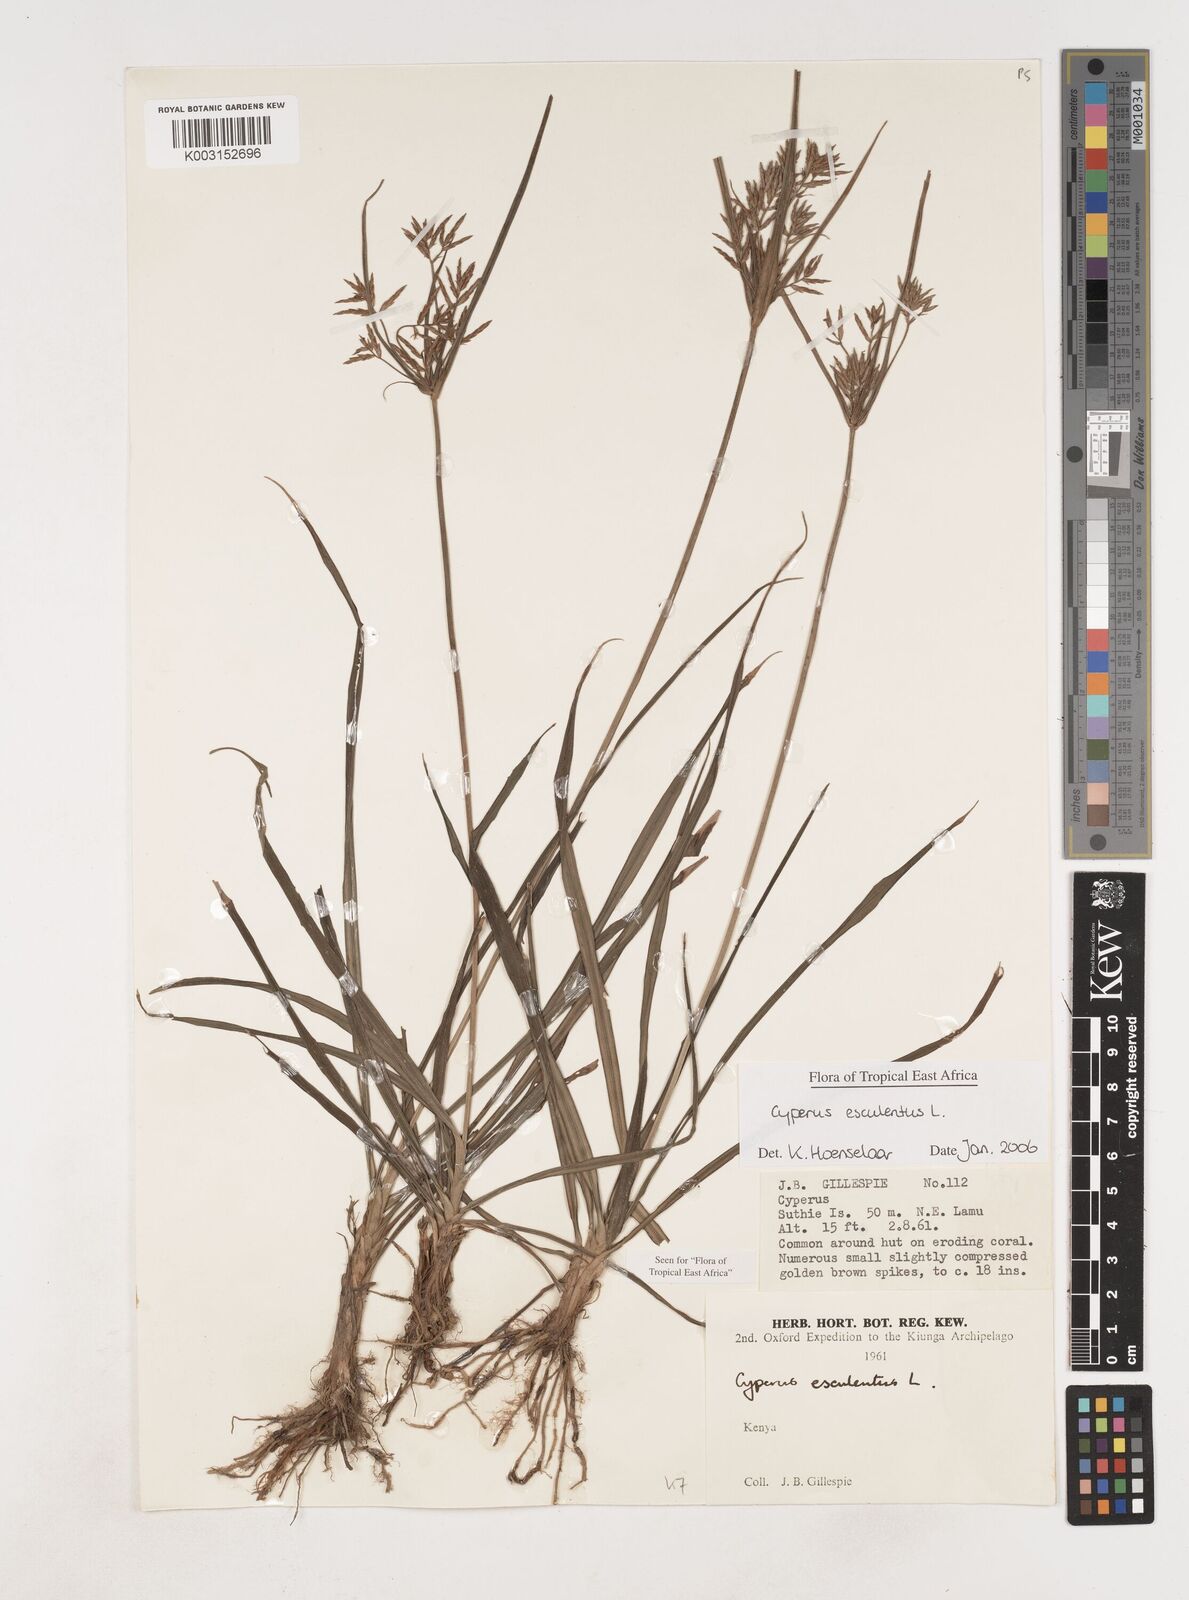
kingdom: Plantae
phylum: Tracheophyta
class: Liliopsida
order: Poales
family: Cyperaceae
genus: Cyperus
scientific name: Cyperus esculentus
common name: Yellow nutsedge
